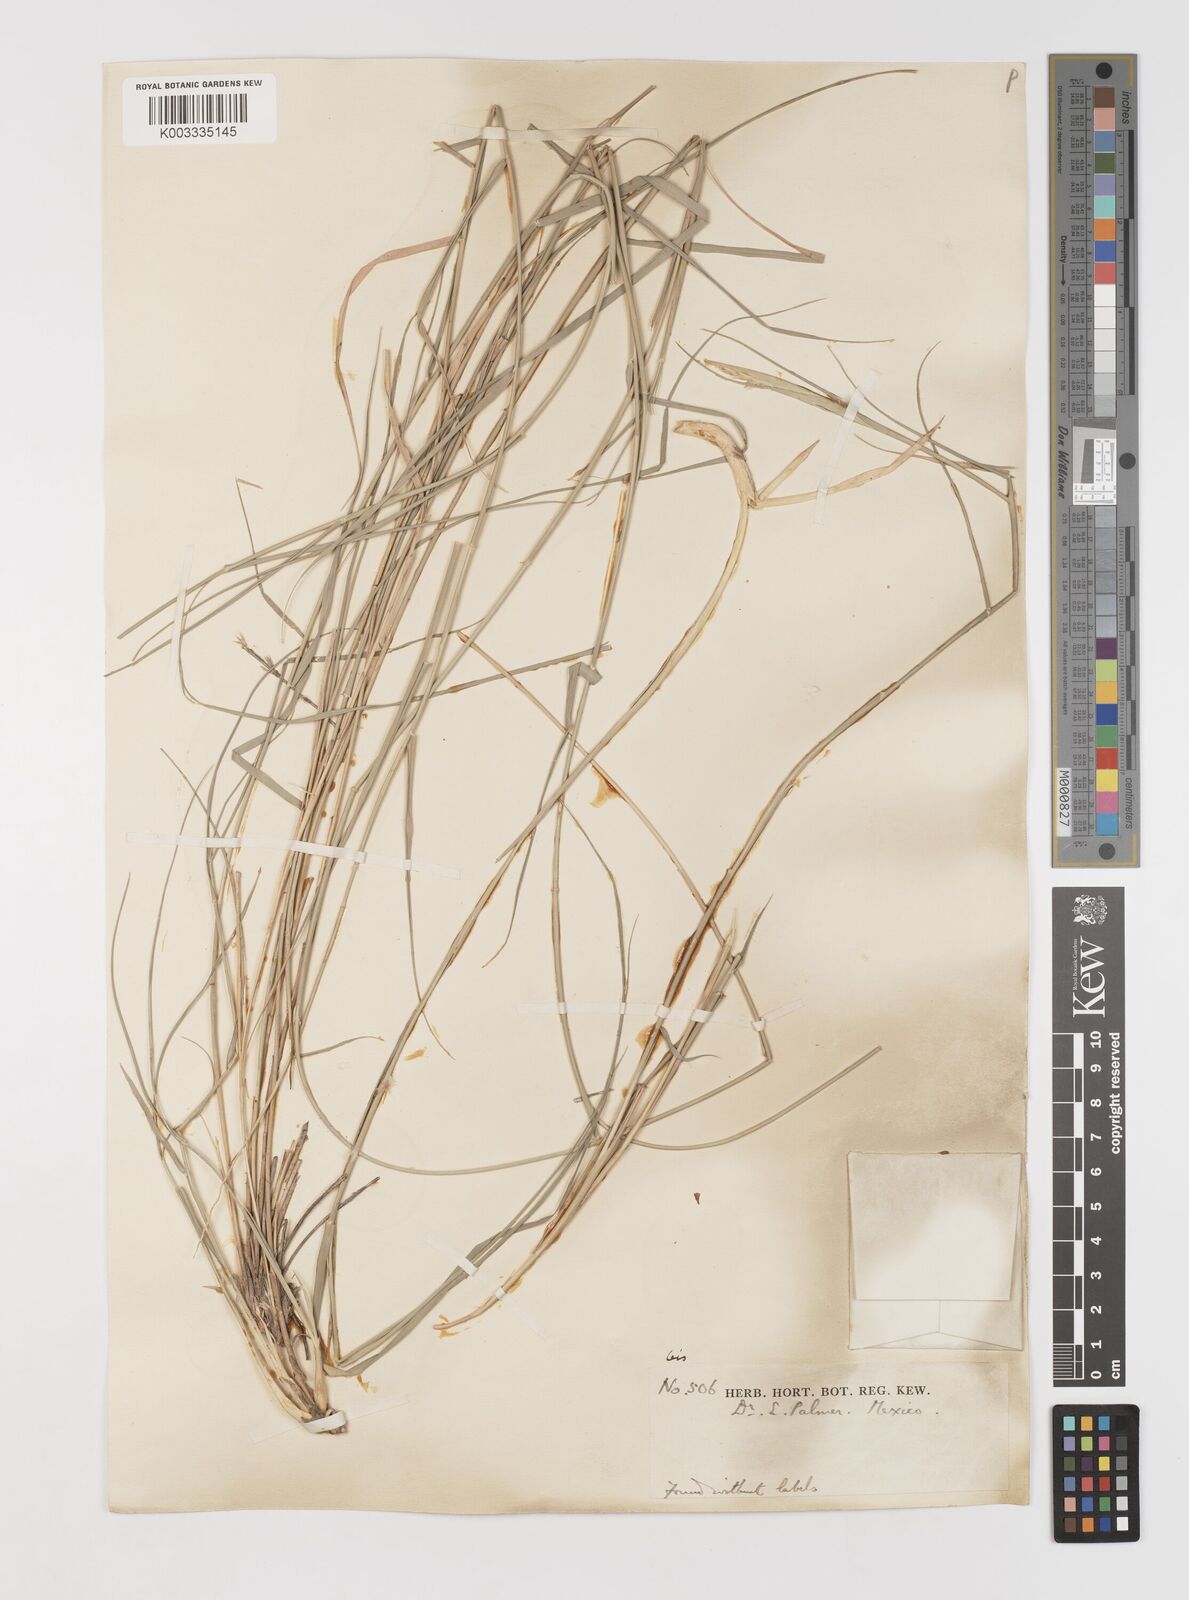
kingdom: Plantae
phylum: Tracheophyta
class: Liliopsida
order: Poales
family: Poaceae
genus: Hilaria
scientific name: Hilaria mutica
